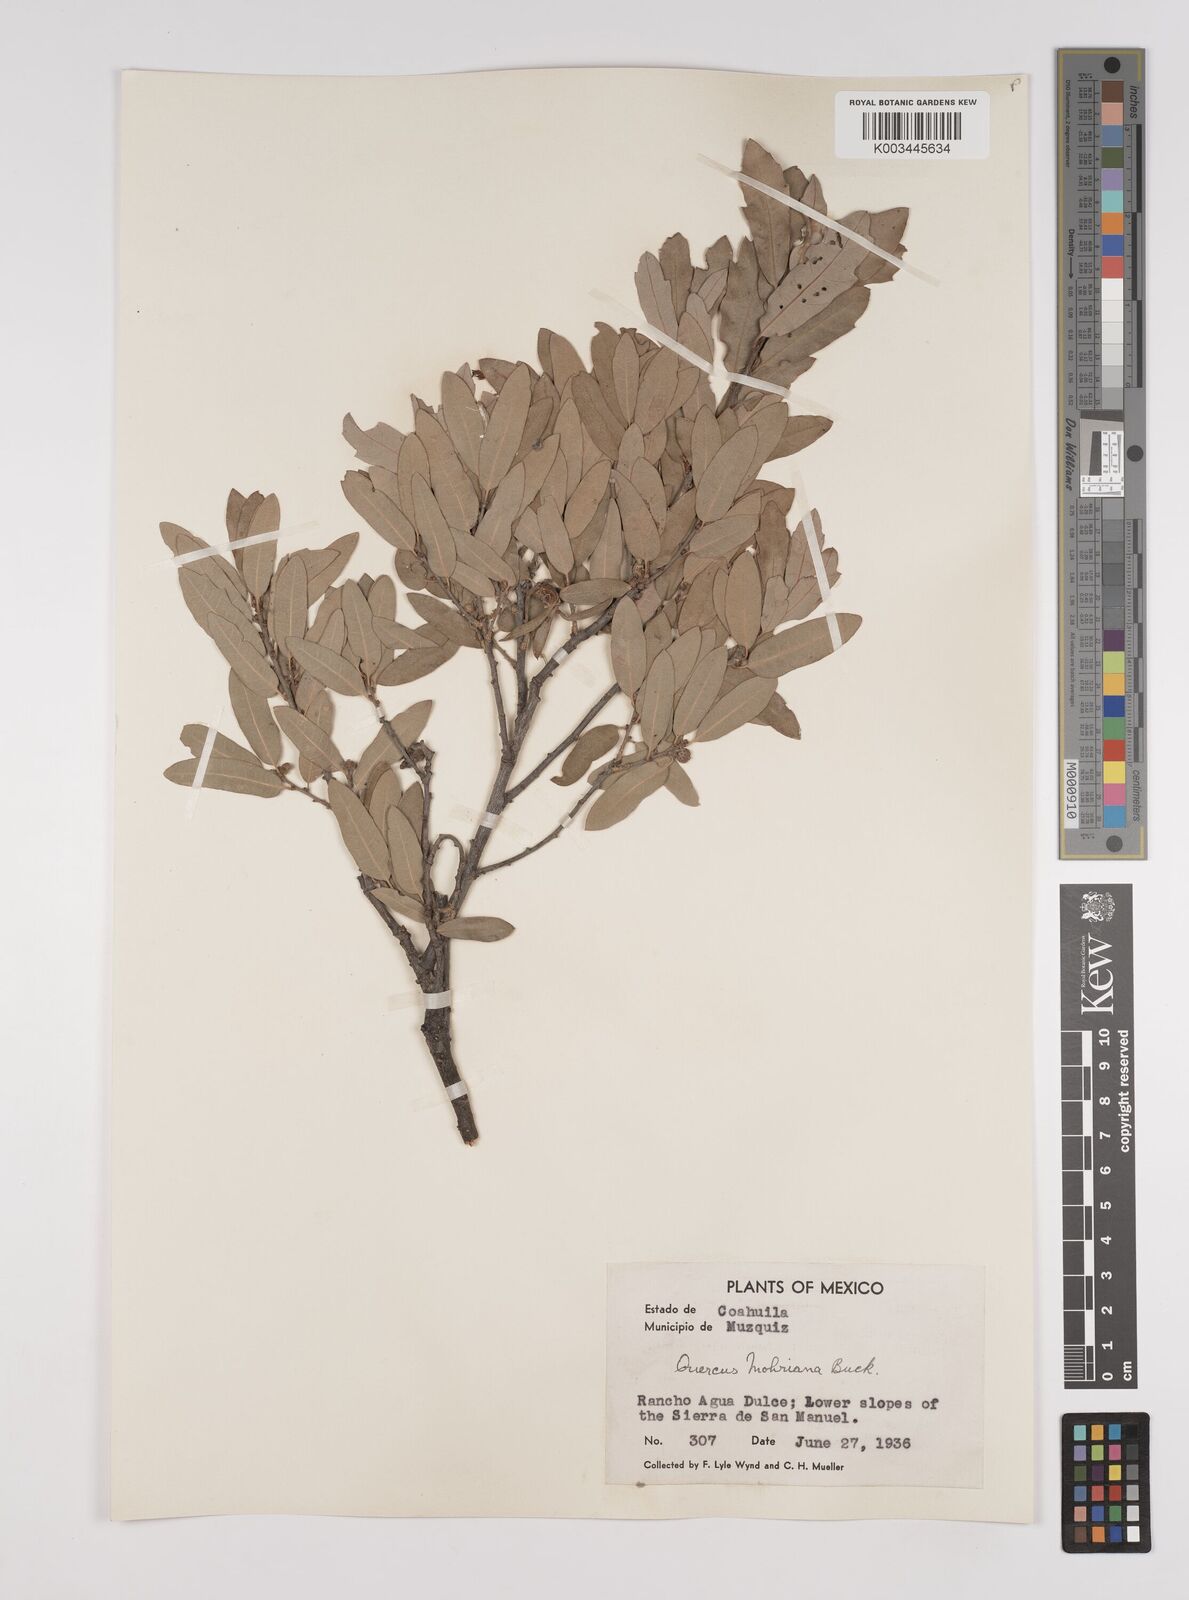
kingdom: Plantae
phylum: Tracheophyta
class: Magnoliopsida
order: Fagales
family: Fagaceae
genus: Quercus
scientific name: Quercus mohriana
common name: Mohr oak
